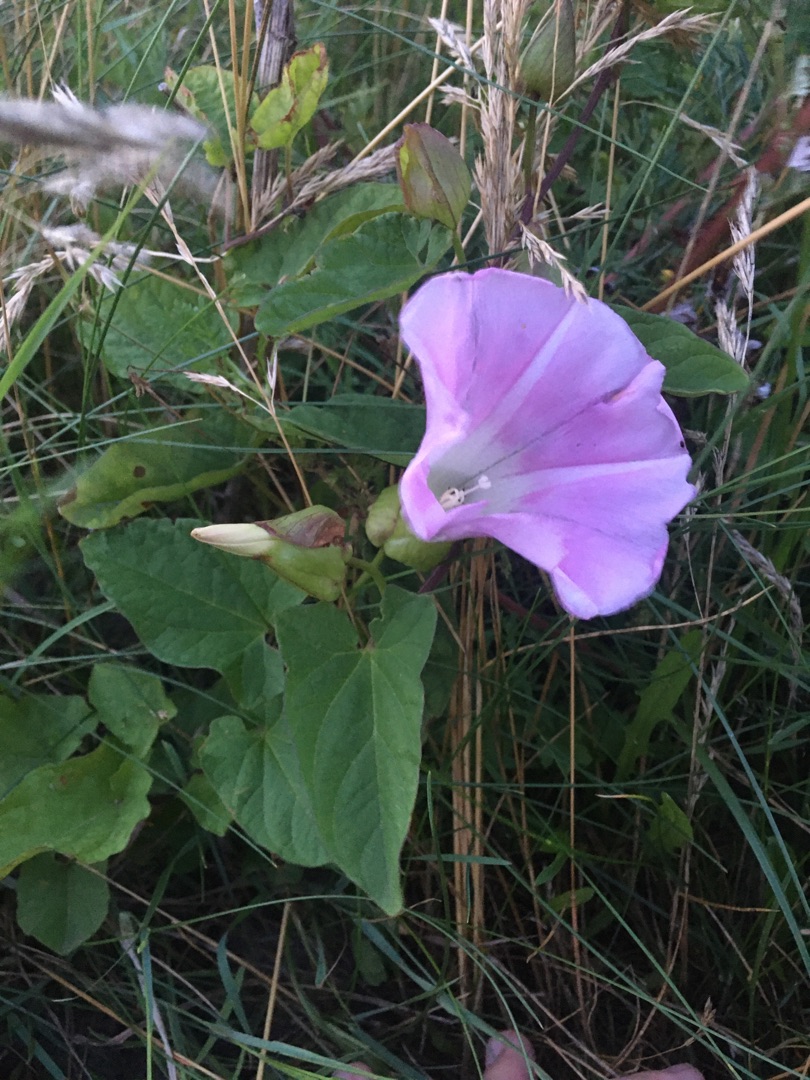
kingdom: Plantae
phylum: Tracheophyta
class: Magnoliopsida
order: Solanales
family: Convolvulaceae
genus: Calystegia
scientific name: Calystegia pulchra
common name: Have-snerle
